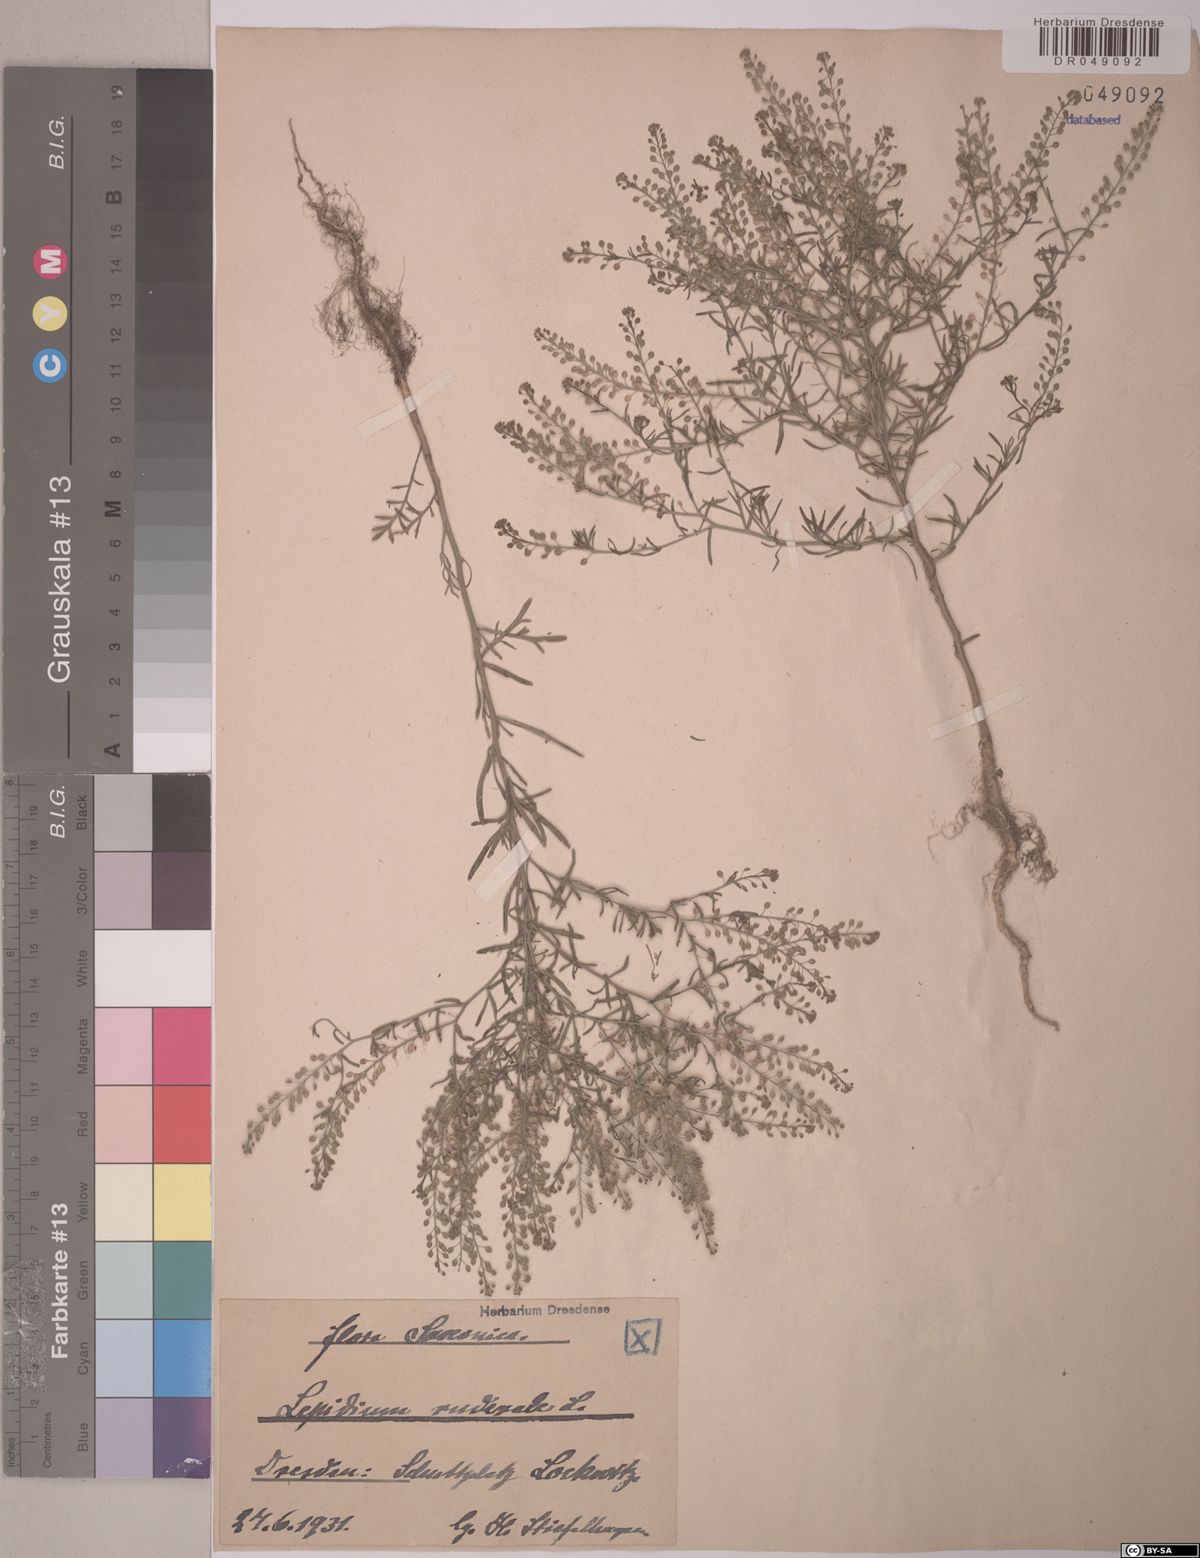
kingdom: Plantae
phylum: Tracheophyta
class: Magnoliopsida
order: Brassicales
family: Brassicaceae
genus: Lepidium
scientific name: Lepidium ruderale
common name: Narrow-leaved pepperwort
